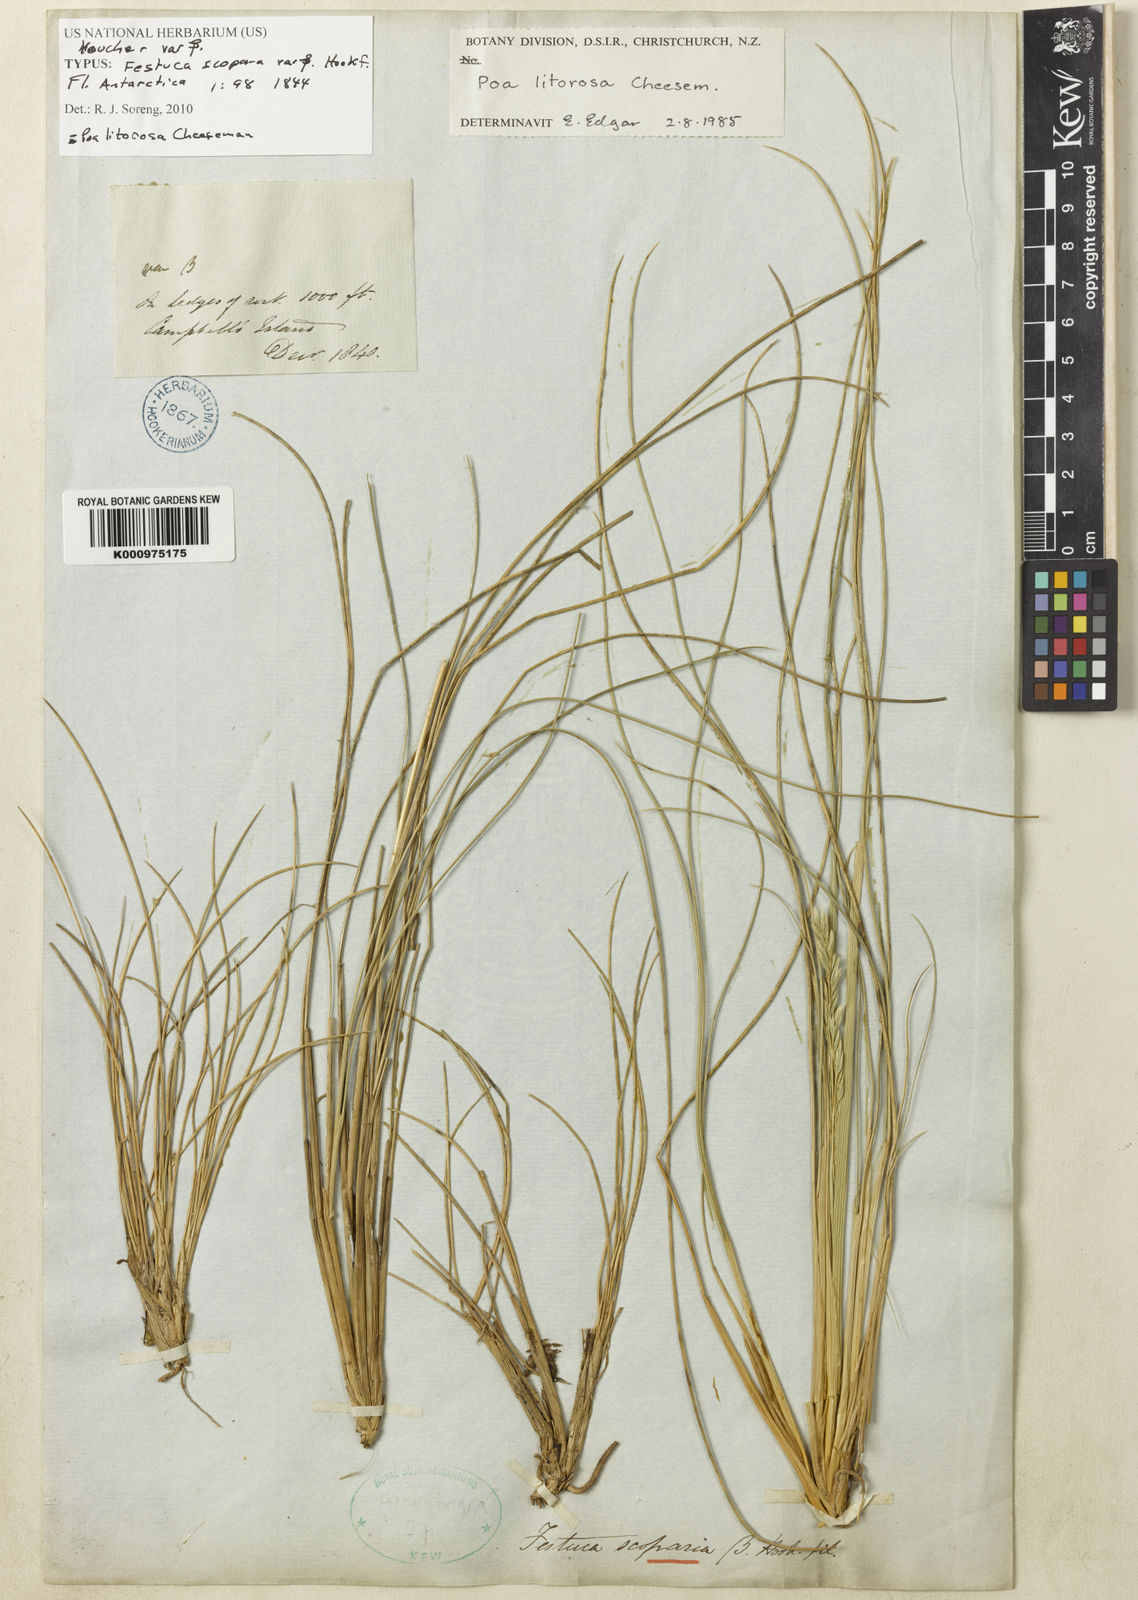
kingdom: Plantae
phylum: Tracheophyta
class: Liliopsida
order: Poales
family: Poaceae
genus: Poa
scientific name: Poa litorosa
